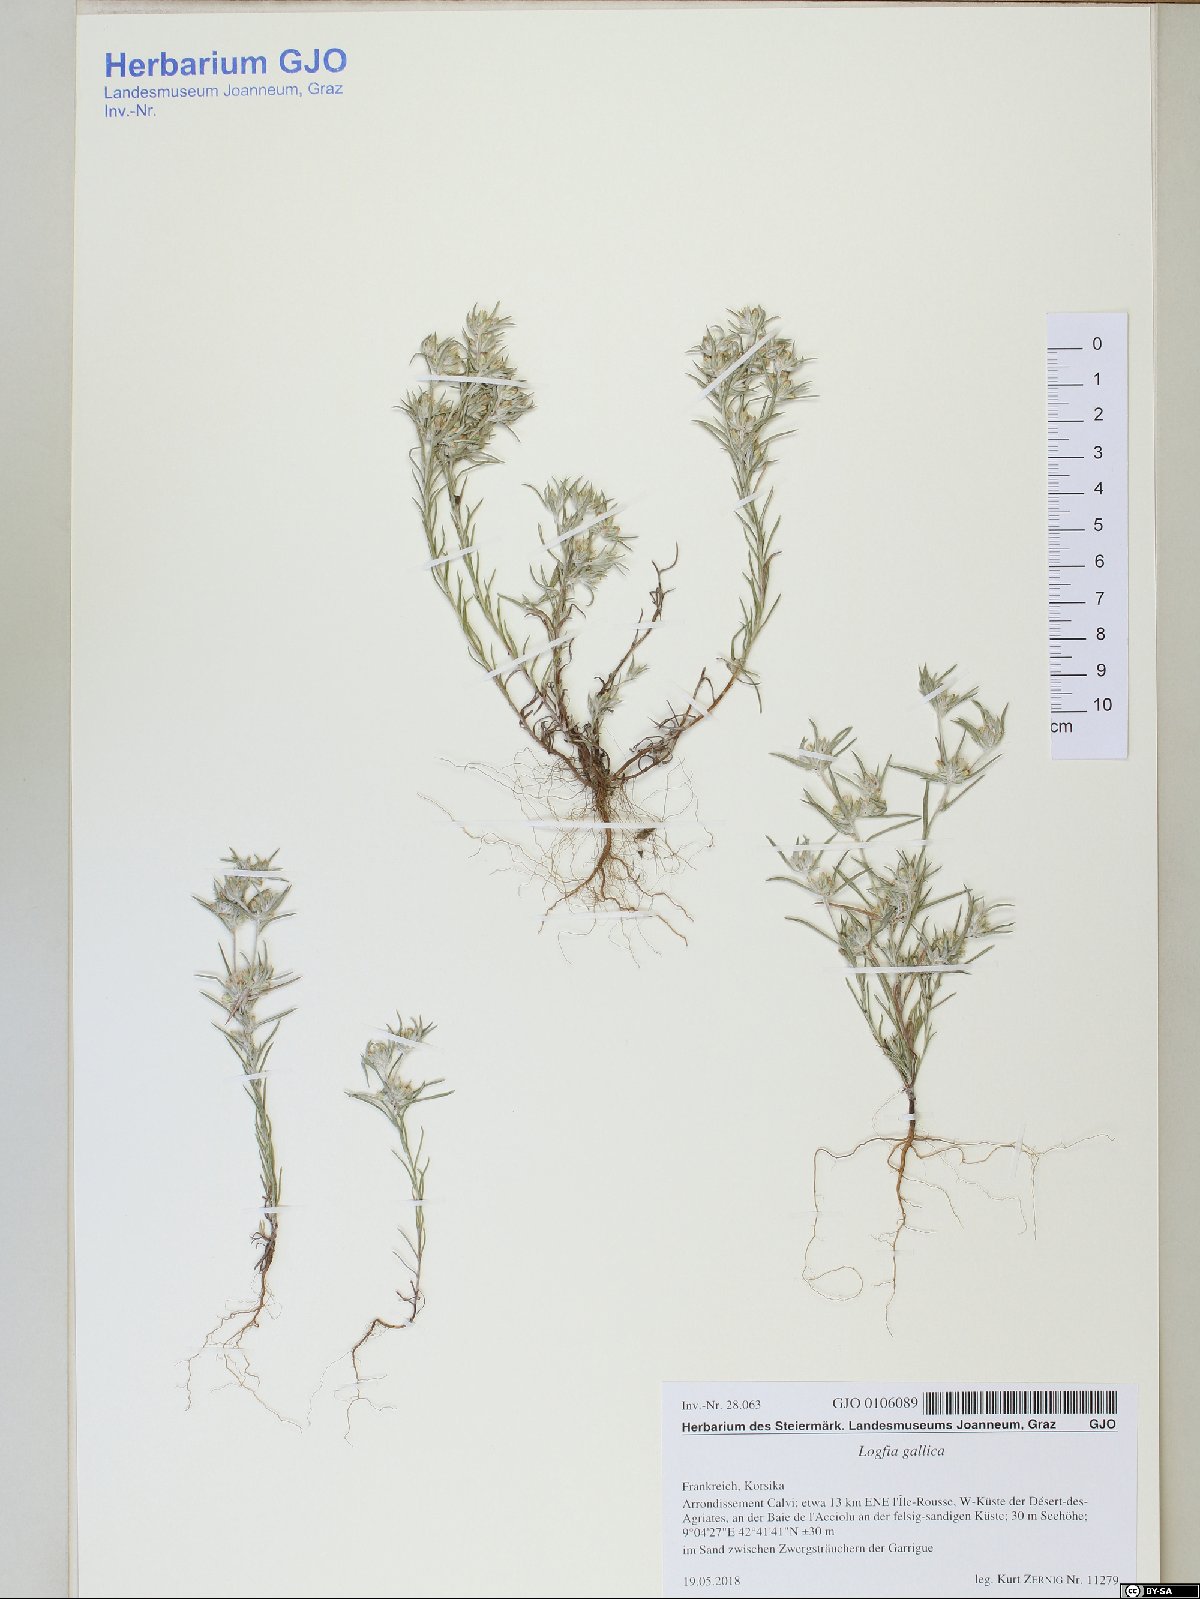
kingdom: Plantae
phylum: Tracheophyta
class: Magnoliopsida
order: Asterales
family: Asteraceae
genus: Logfia
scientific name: Logfia gallica
